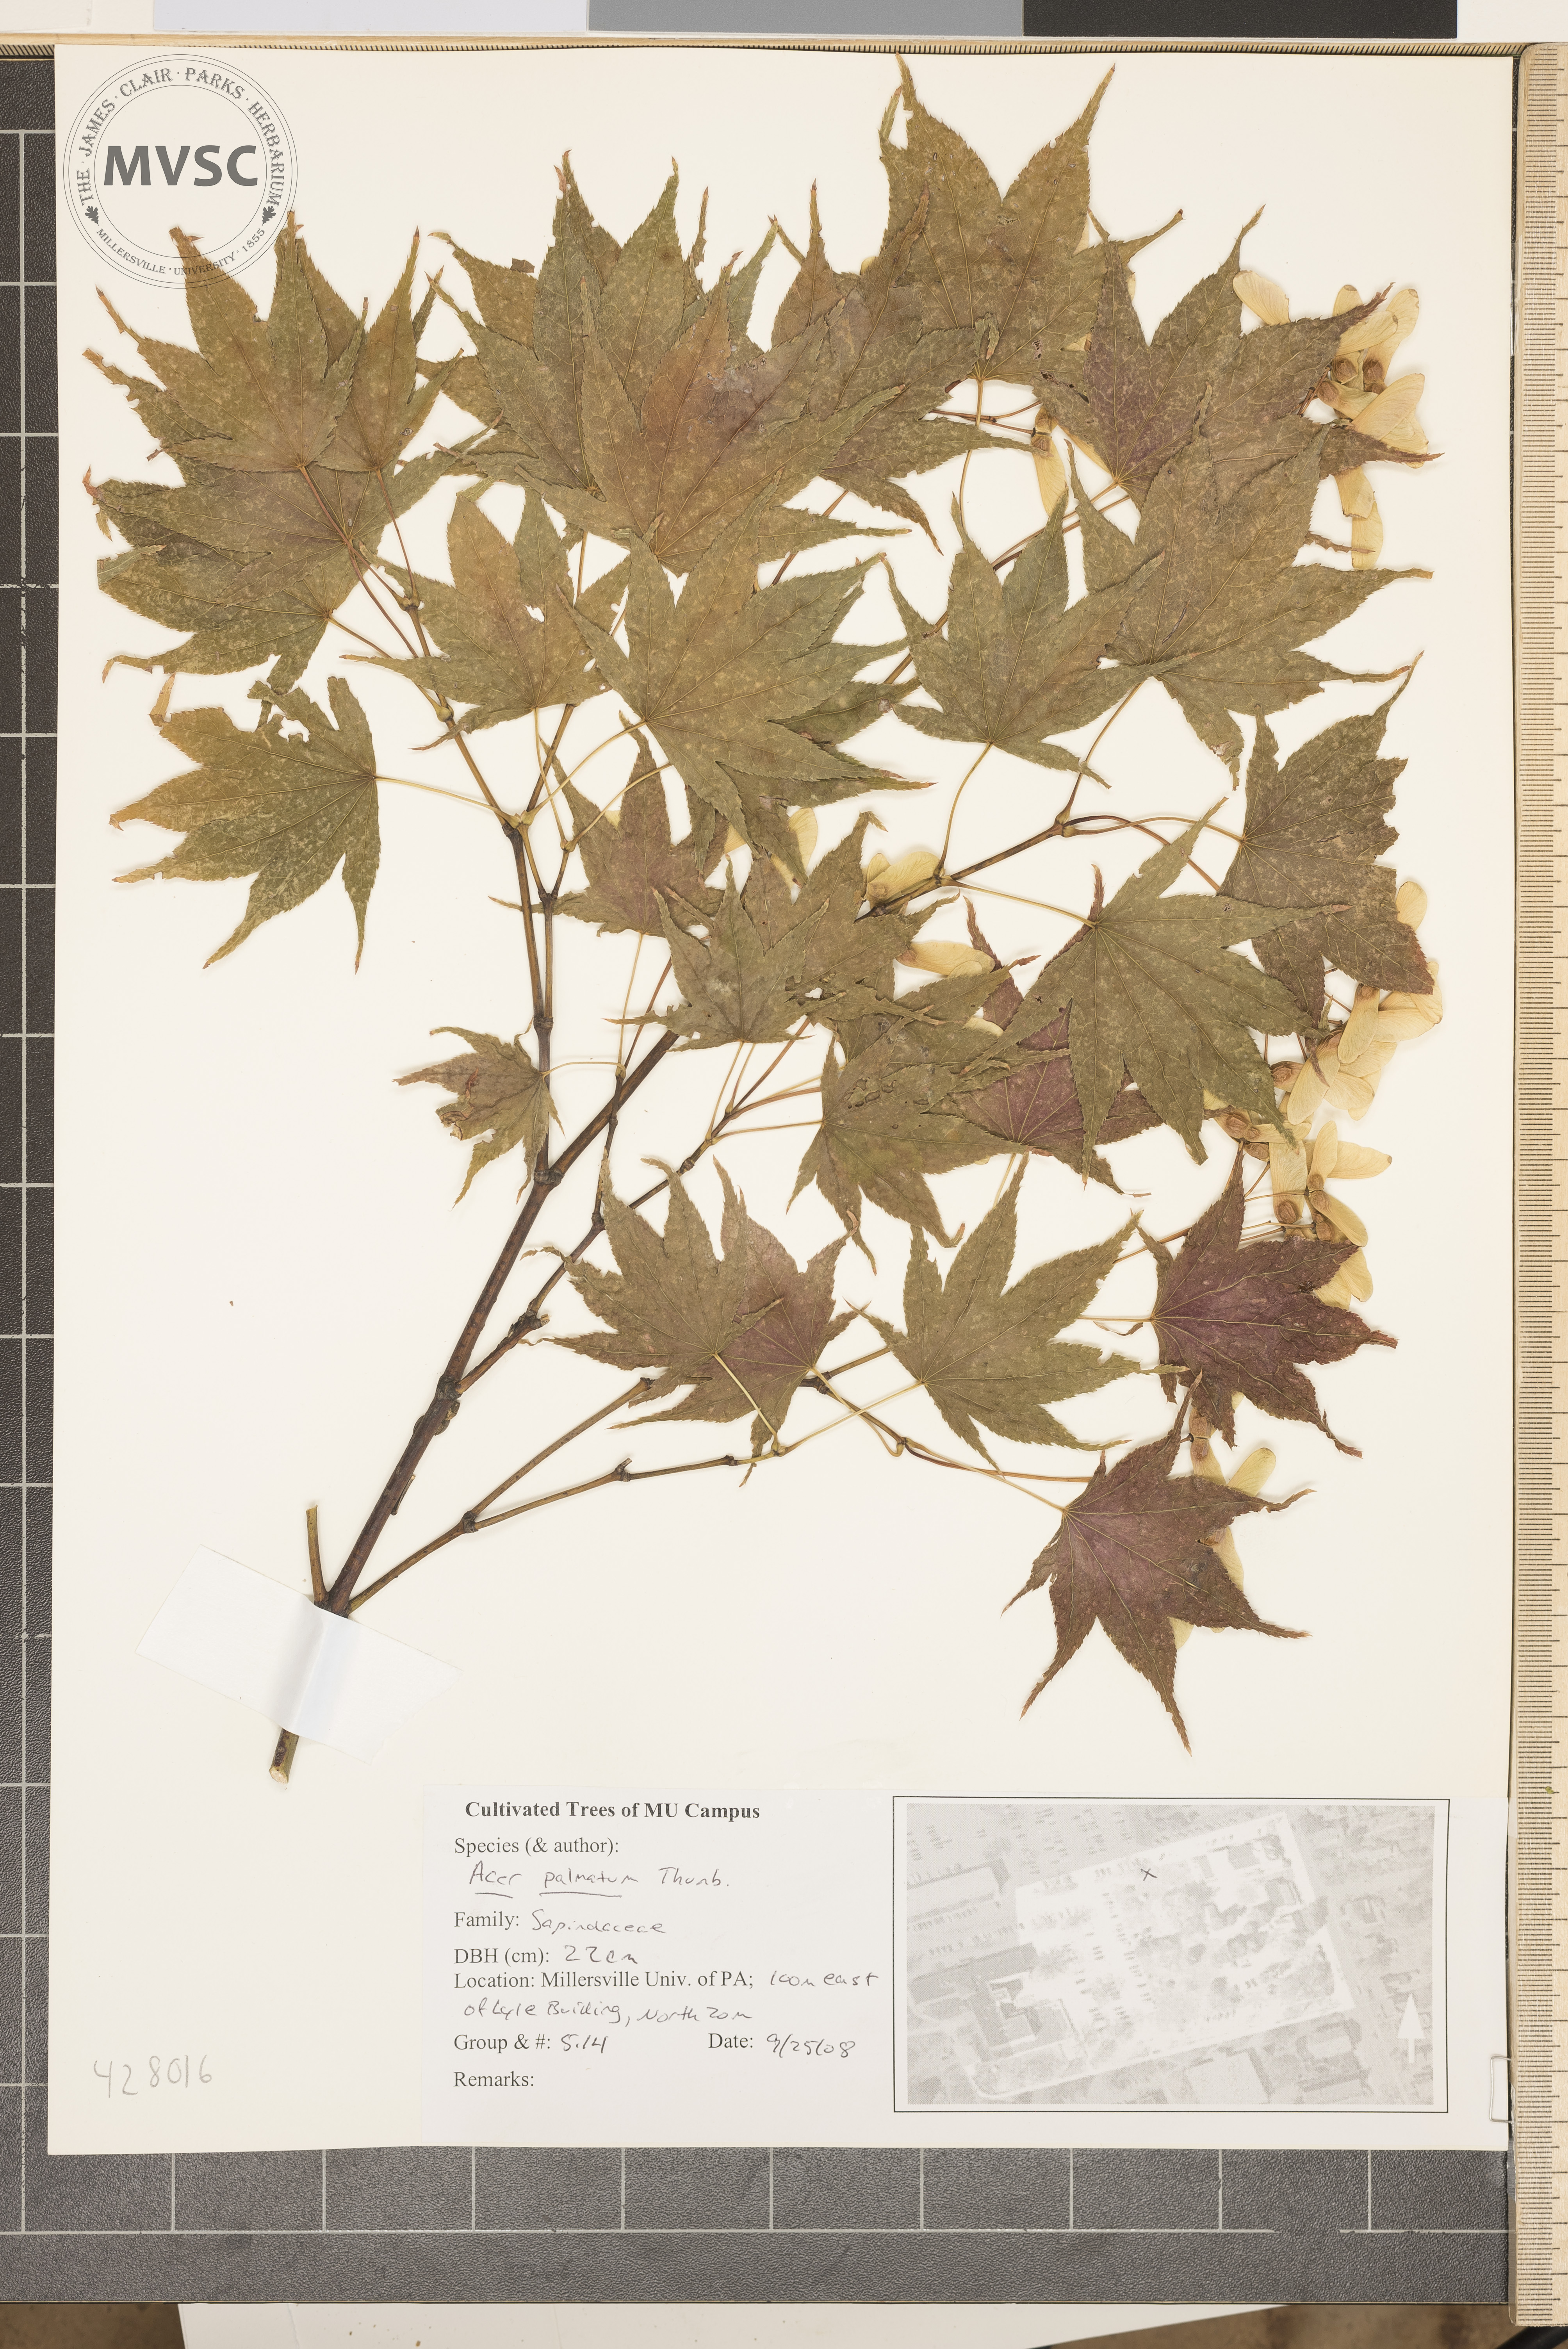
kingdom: Plantae
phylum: Tracheophyta
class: Magnoliopsida
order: Sapindales
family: Sapindaceae
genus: Acer
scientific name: Acer palmatum
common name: Japanese Maple
